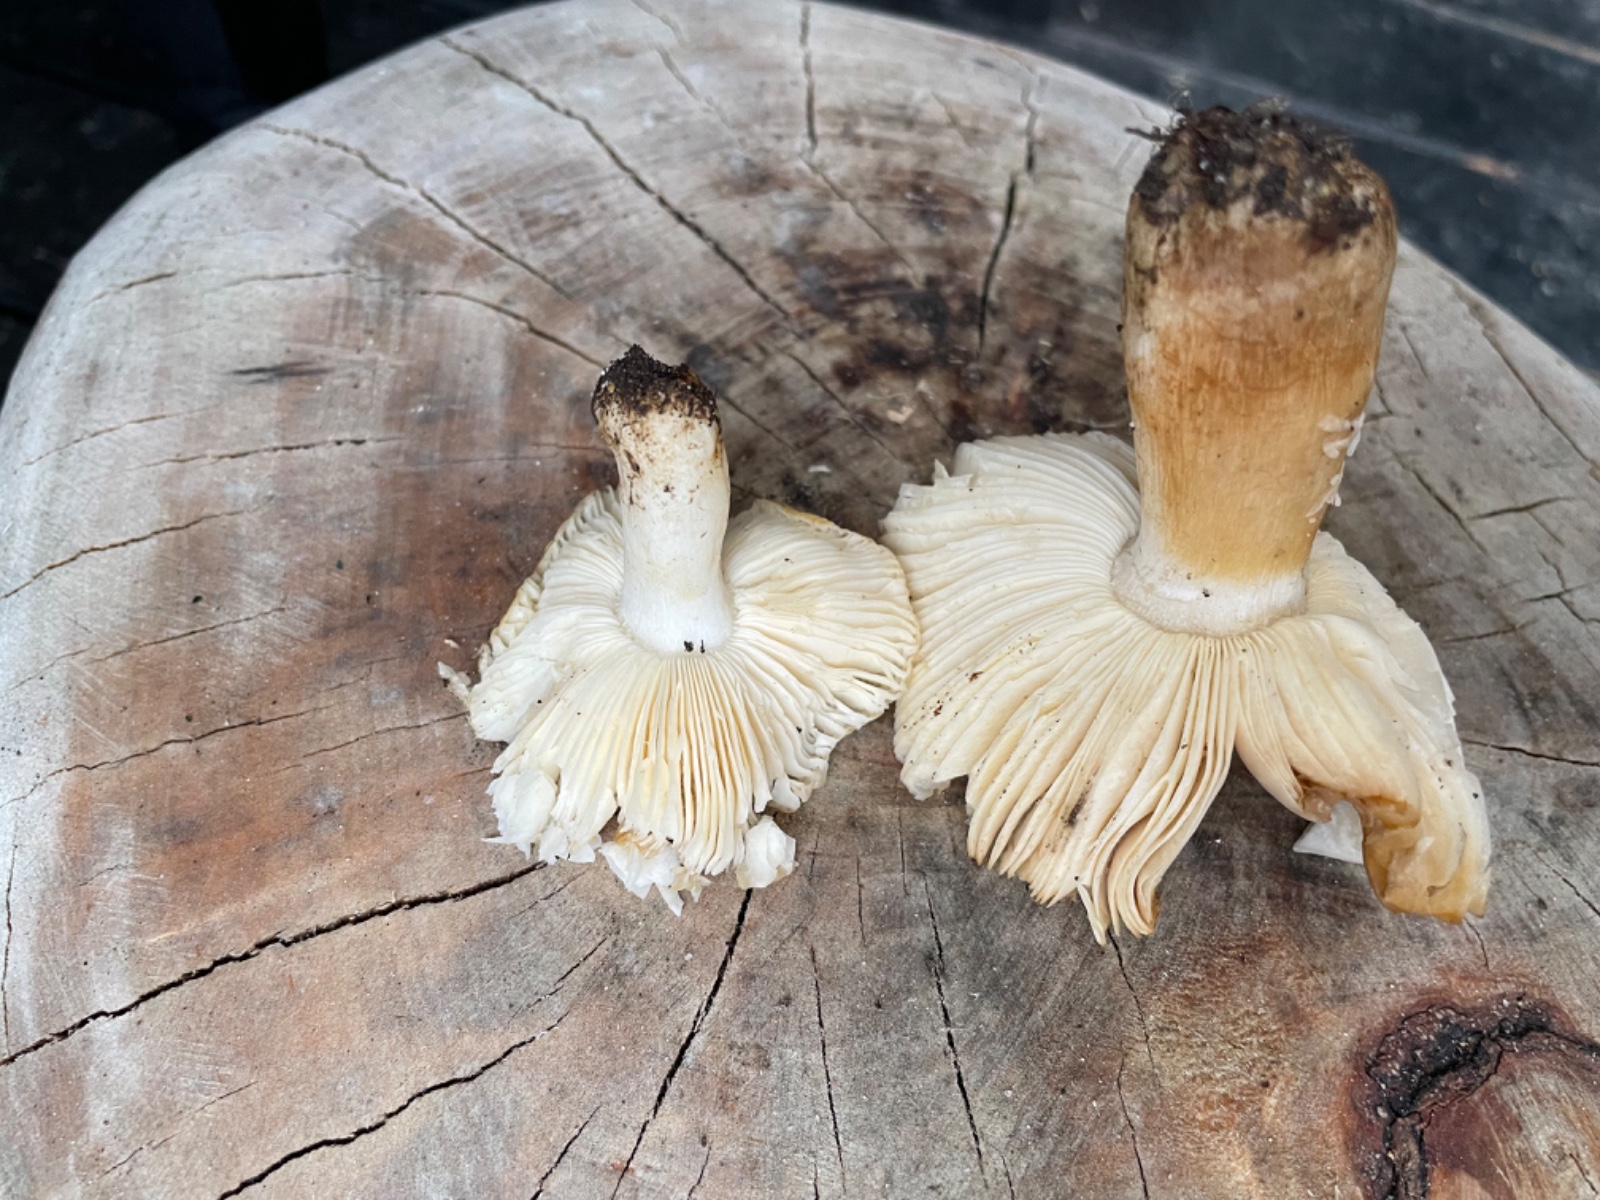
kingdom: Fungi
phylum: Basidiomycota
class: Agaricomycetes
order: Russulales
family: Russulaceae
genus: Russula
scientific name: Russula
